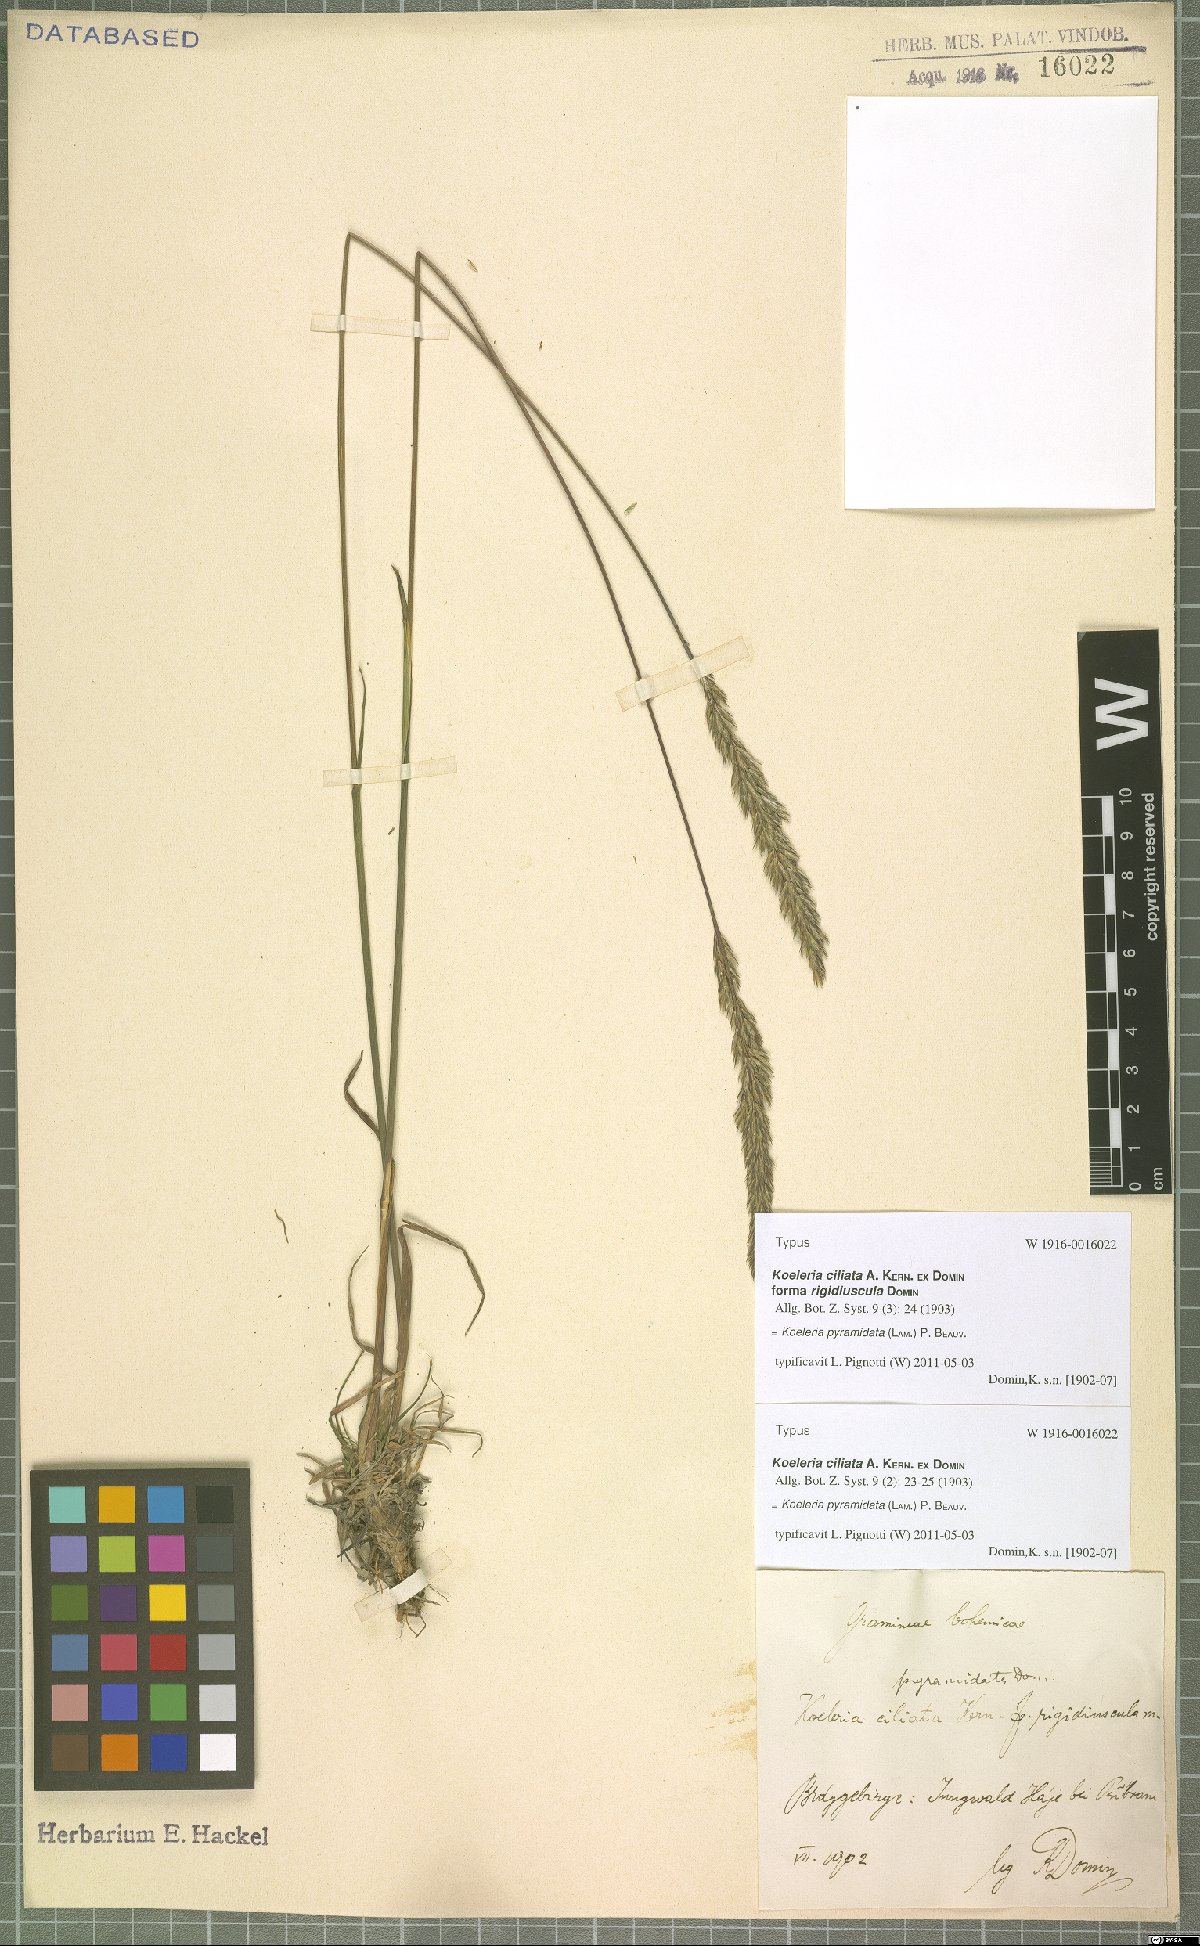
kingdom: Plantae
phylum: Tracheophyta
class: Liliopsida
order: Poales
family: Poaceae
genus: Koeleria
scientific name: Koeleria pyramidata
